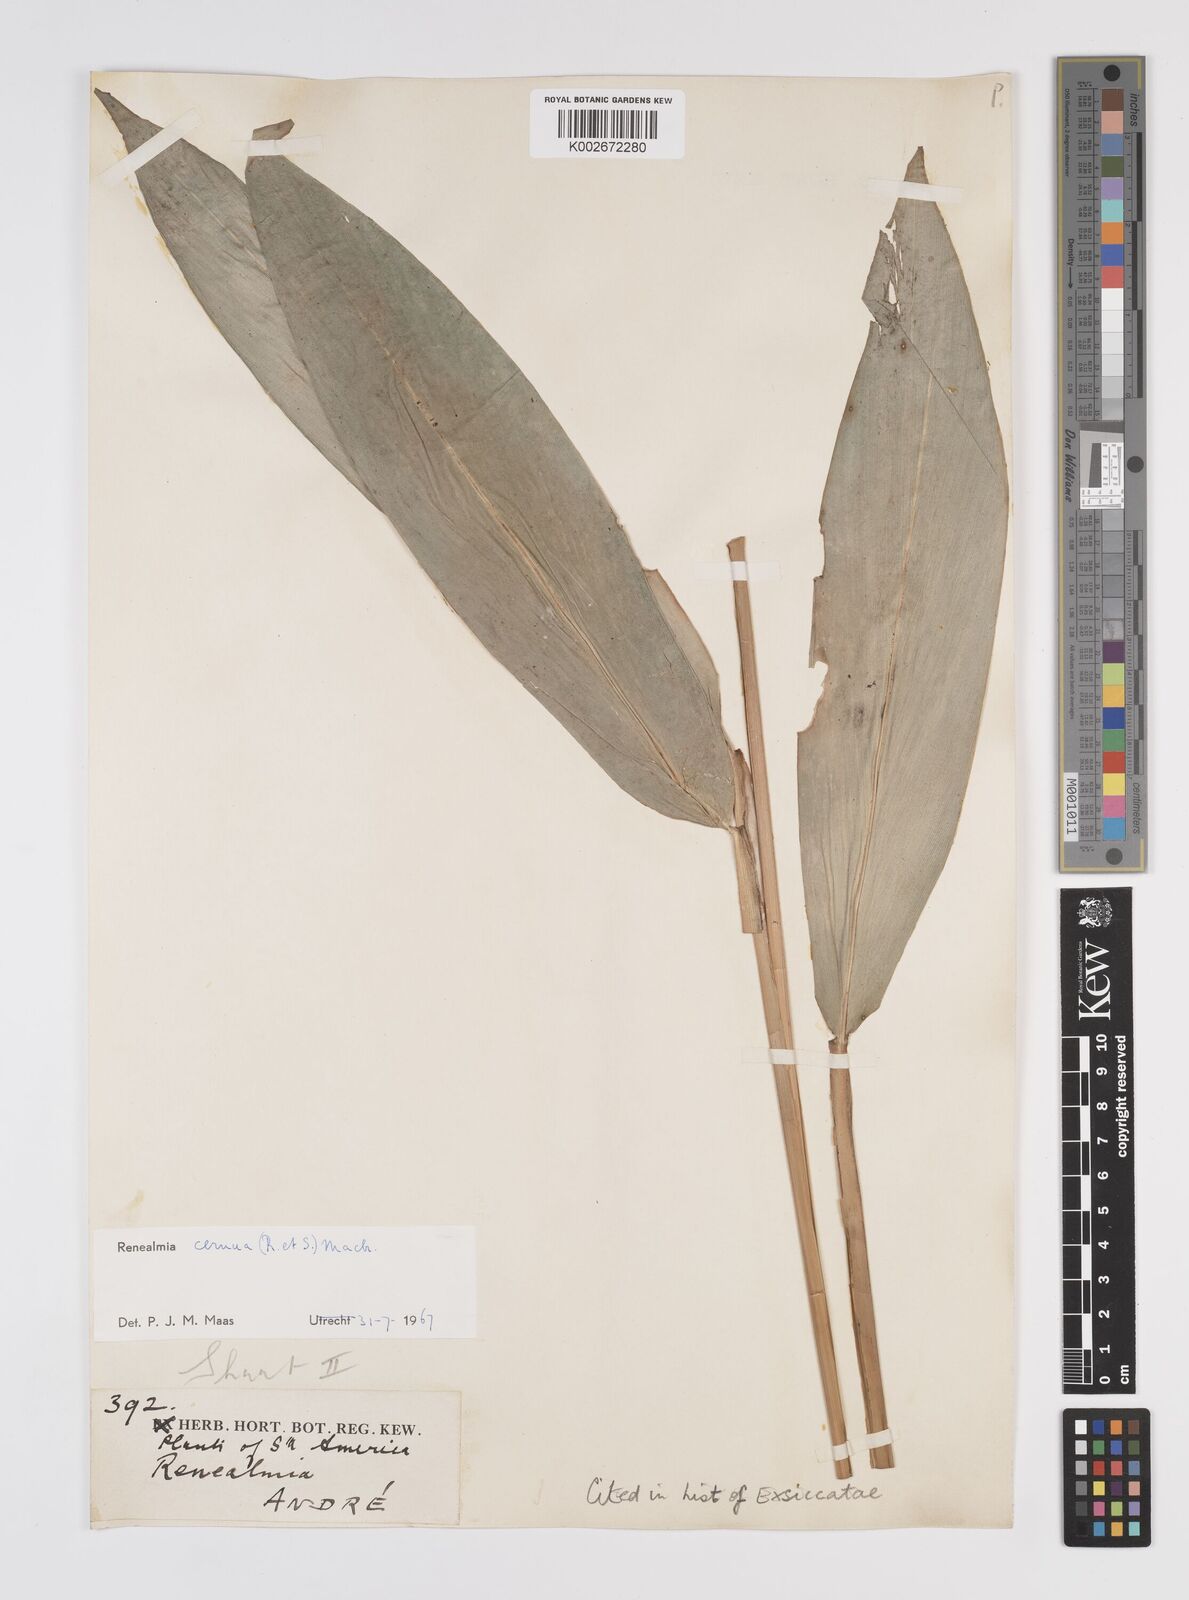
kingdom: Plantae
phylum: Tracheophyta
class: Liliopsida
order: Zingiberales
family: Zingiberaceae
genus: Renealmia
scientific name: Renealmia cernua
